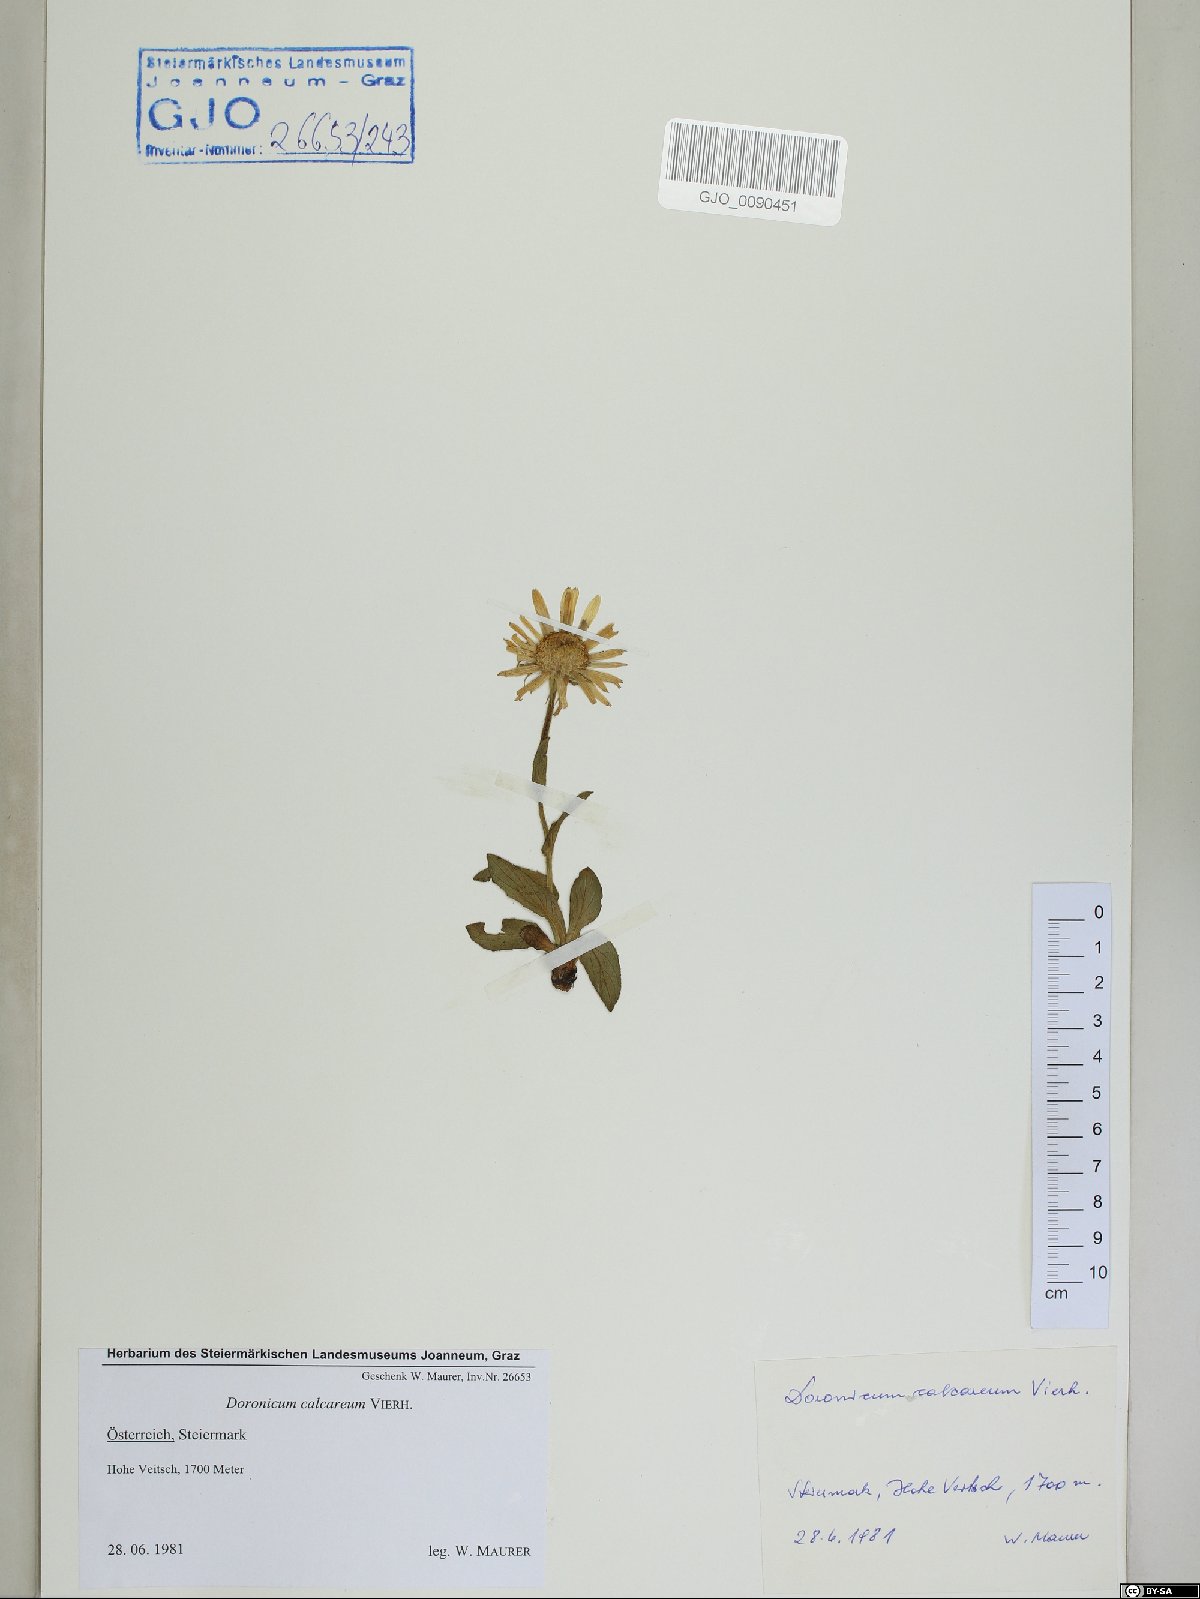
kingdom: Plantae
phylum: Tracheophyta
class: Magnoliopsida
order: Asterales
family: Asteraceae
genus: Doronicum
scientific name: Doronicum glaciale
